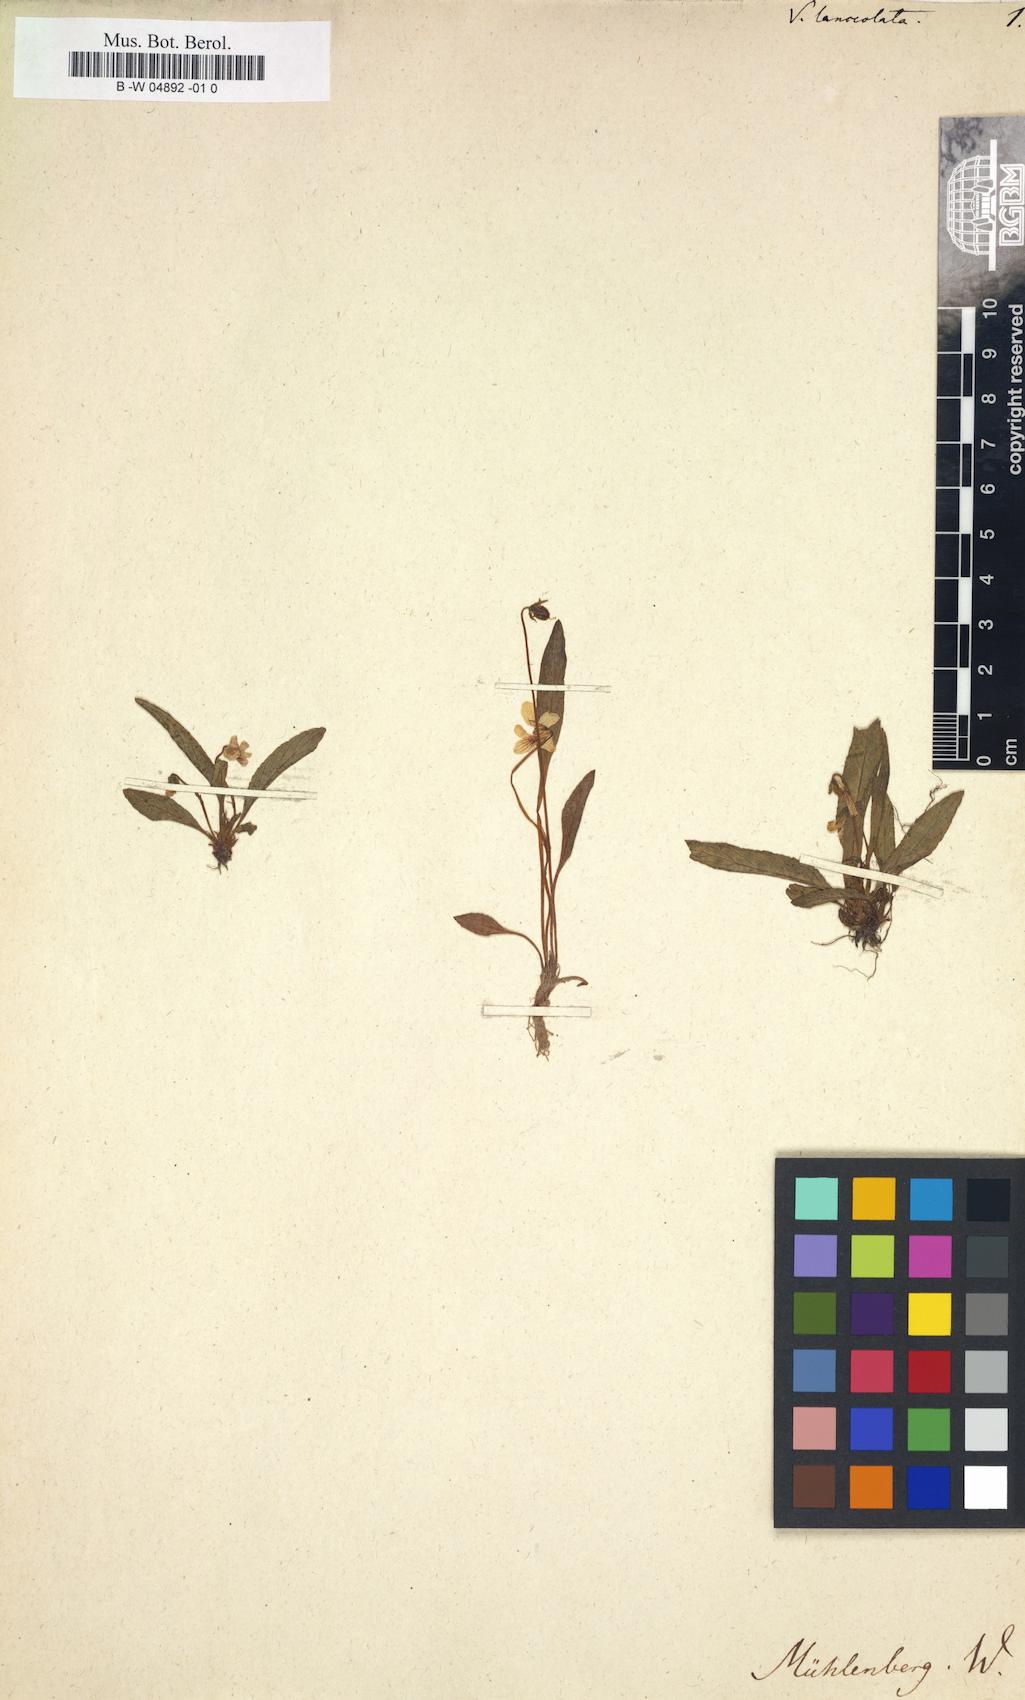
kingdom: Plantae
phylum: Tracheophyta
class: Magnoliopsida
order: Malpighiales
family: Violaceae
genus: Viola
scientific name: Viola lanceolata
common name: Bog white violet
